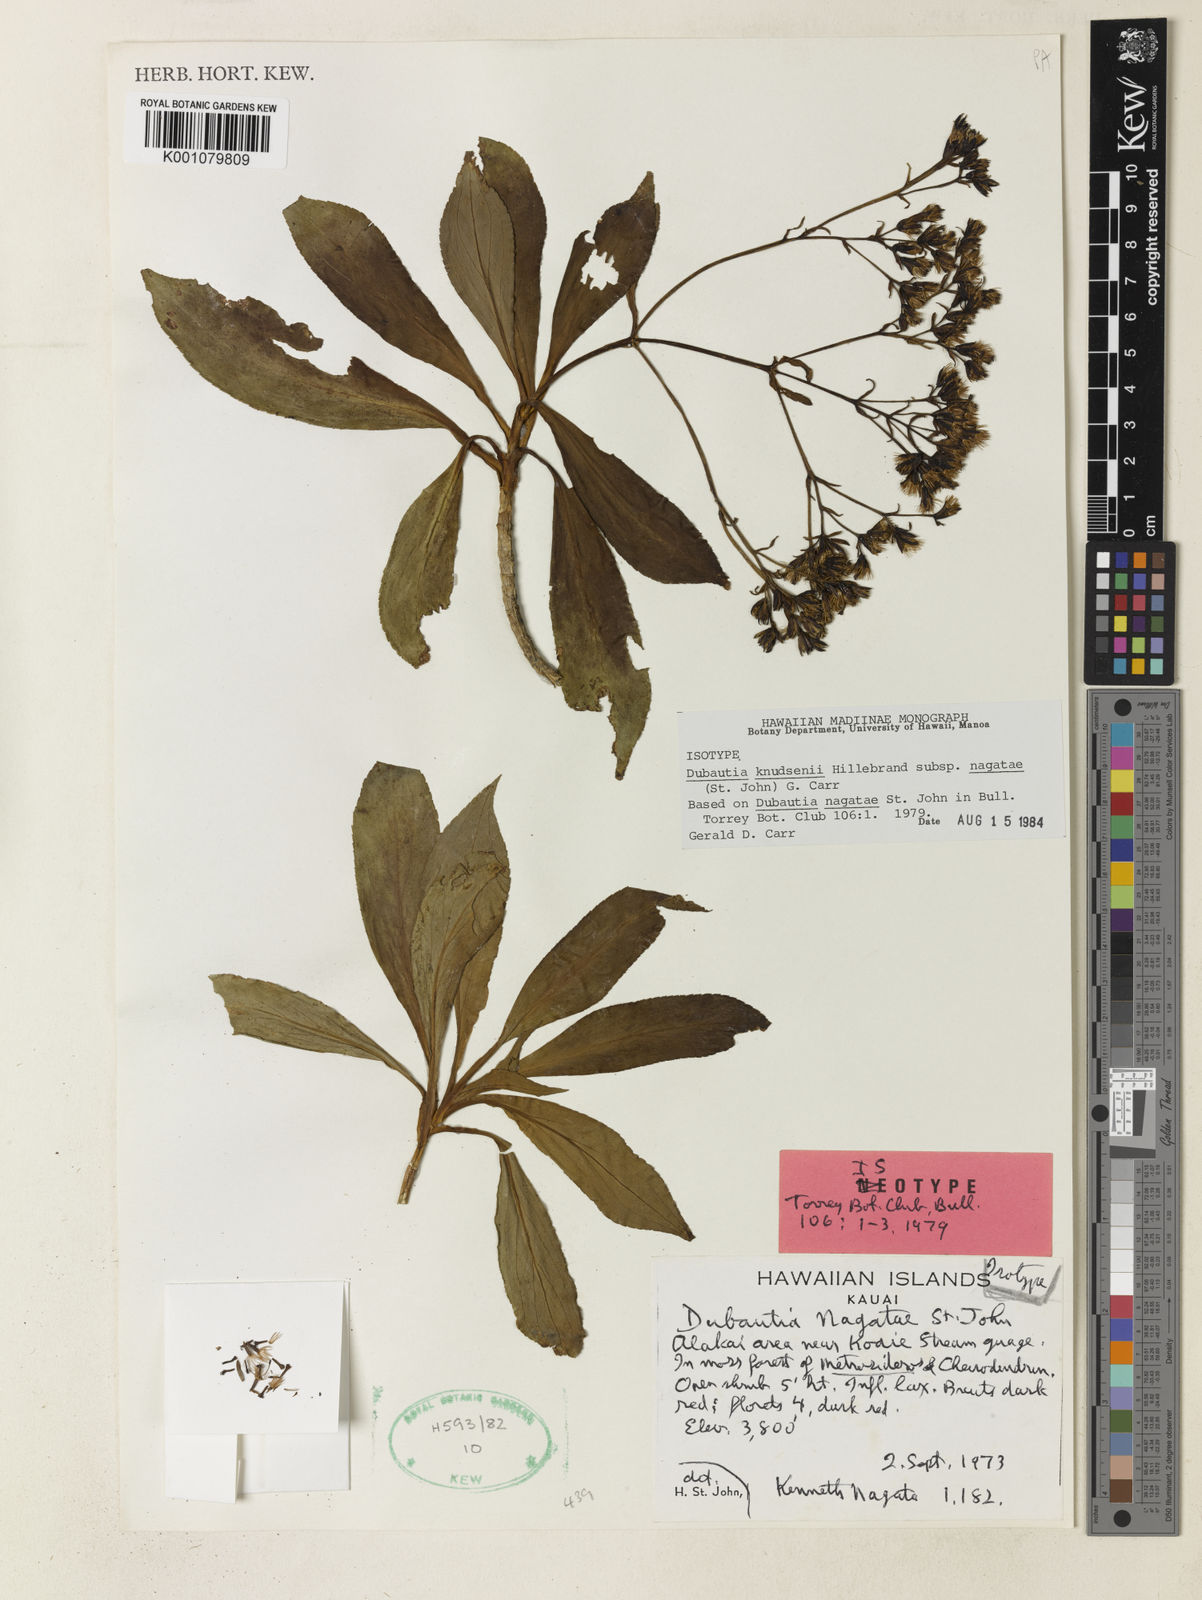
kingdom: Plantae
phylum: Tracheophyta
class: Magnoliopsida
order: Asterales
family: Asteraceae
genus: Dubautia
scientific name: Dubautia knudsenii
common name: Knudsen's dubautia
